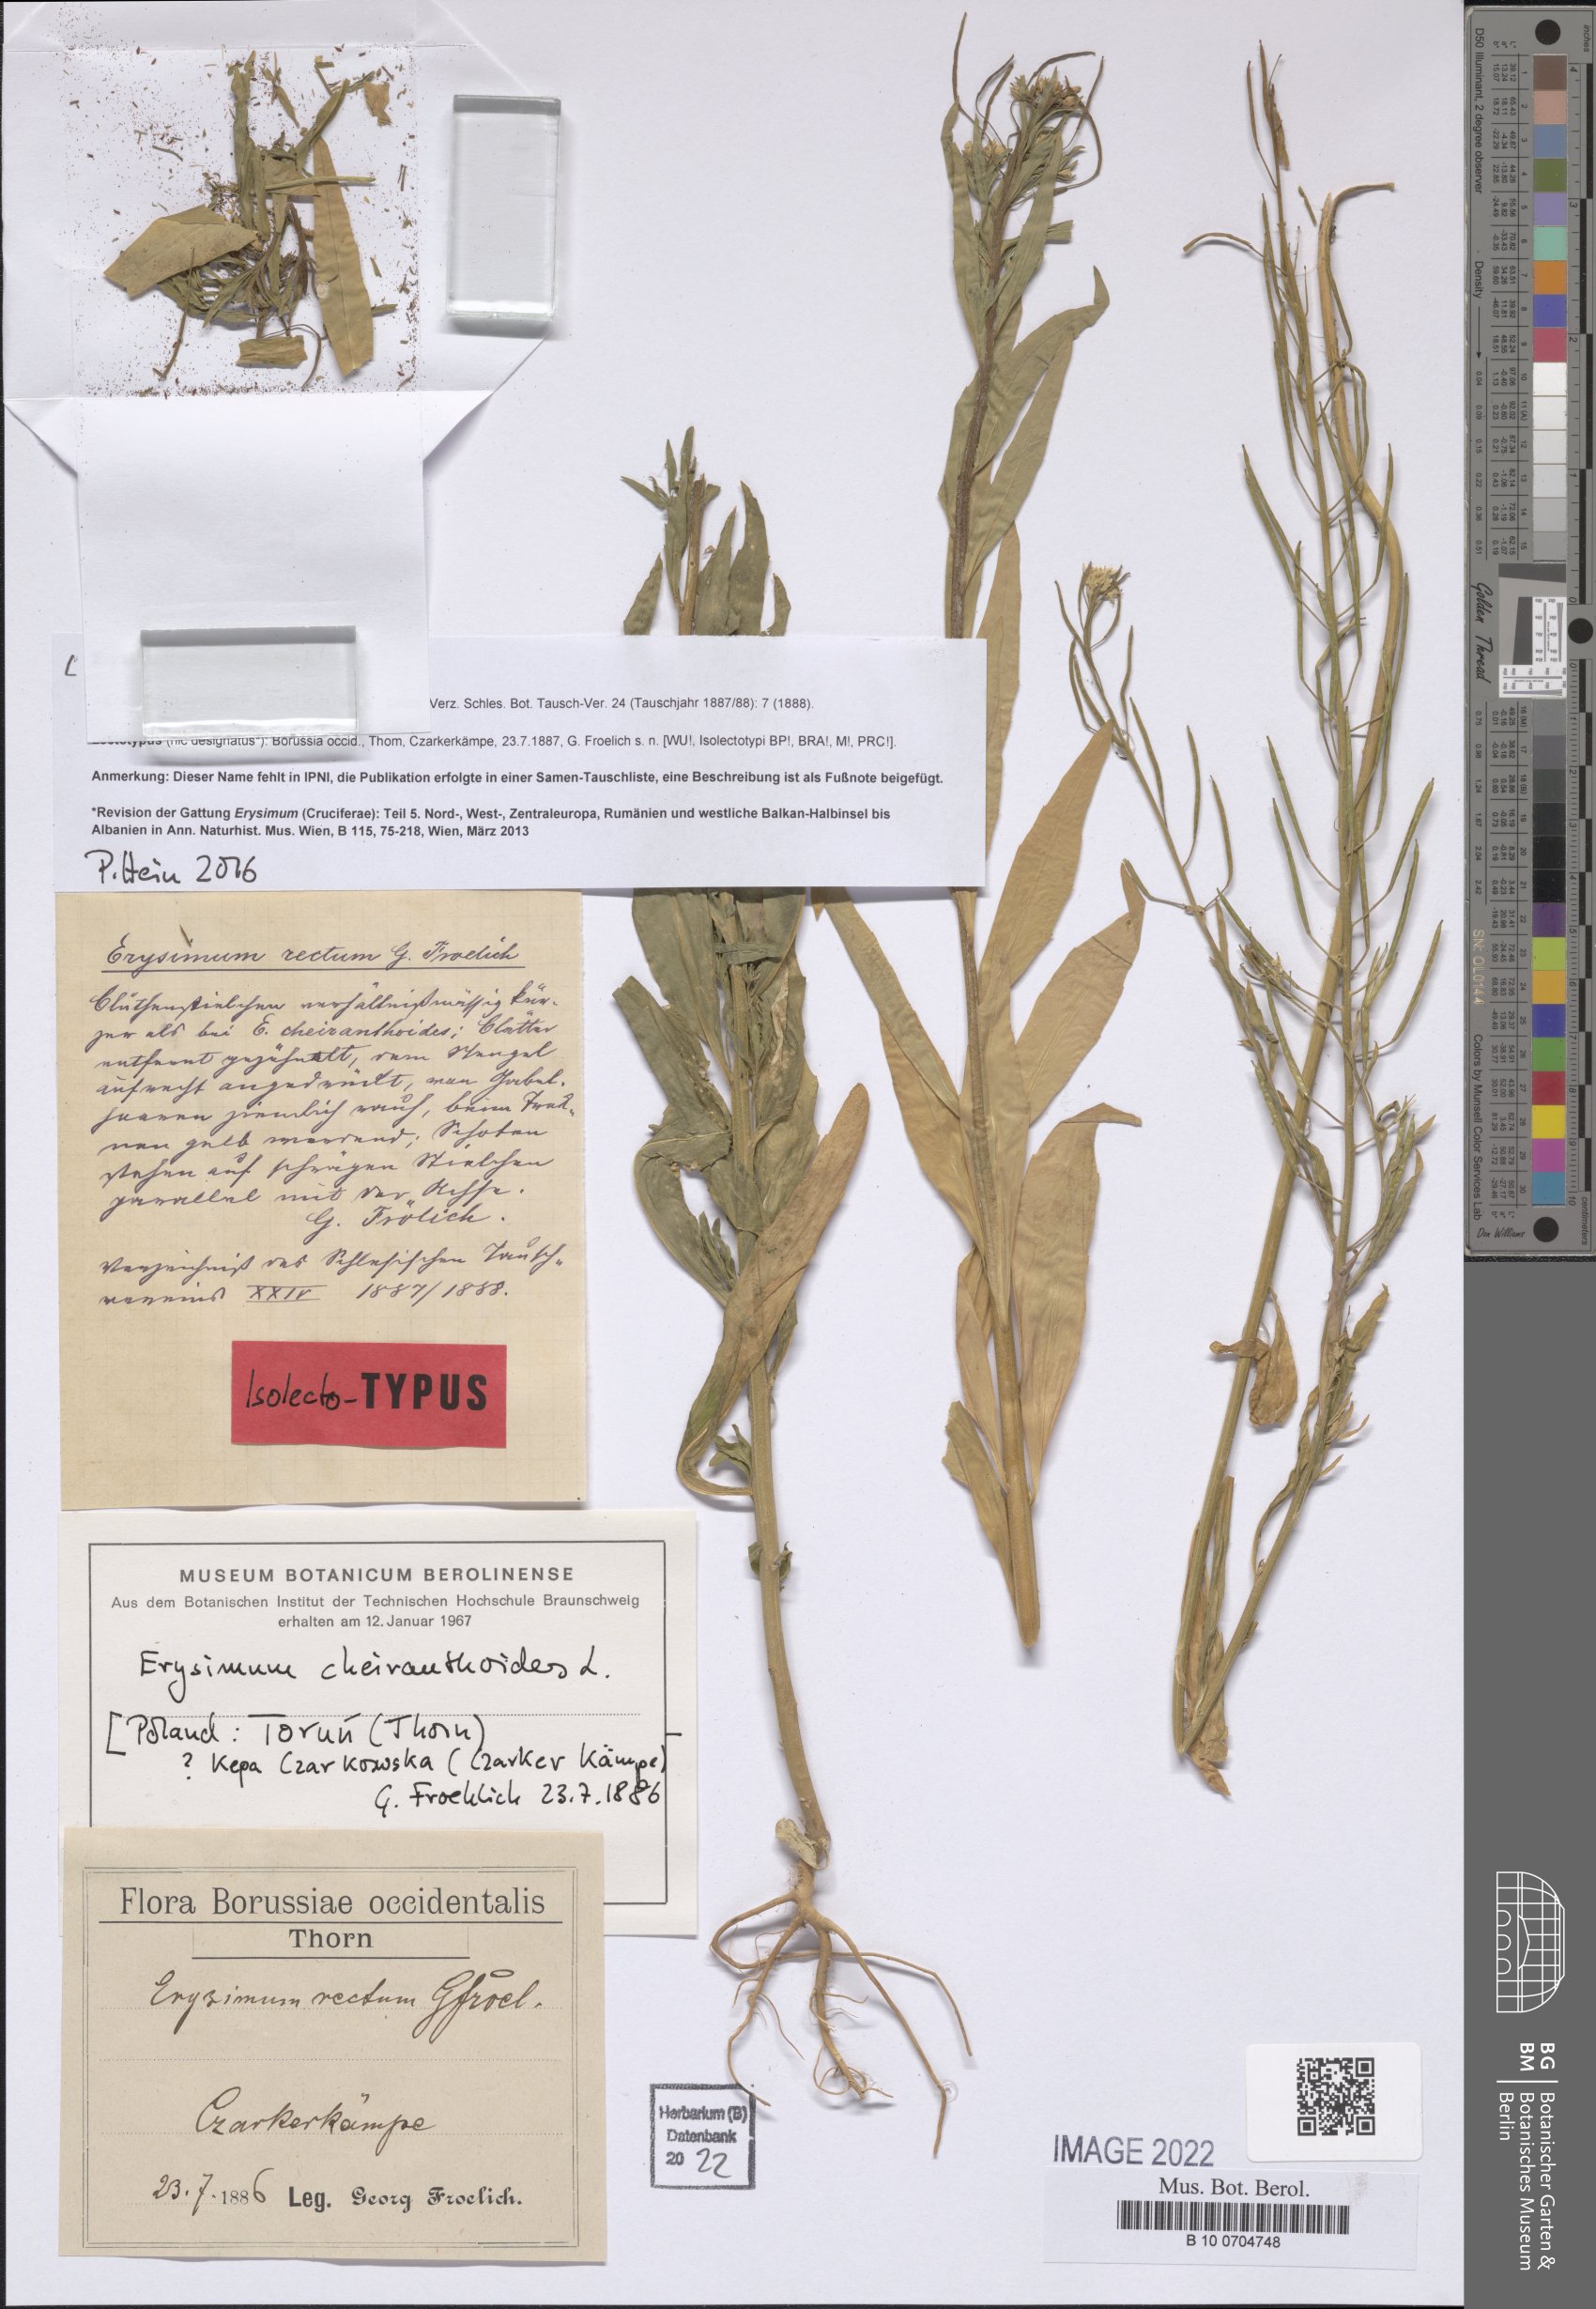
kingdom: Plantae
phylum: Tracheophyta
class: Magnoliopsida
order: Brassicales
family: Brassicaceae
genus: Erysimum
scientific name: Erysimum cheiranthoides
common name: Treacle mustard
